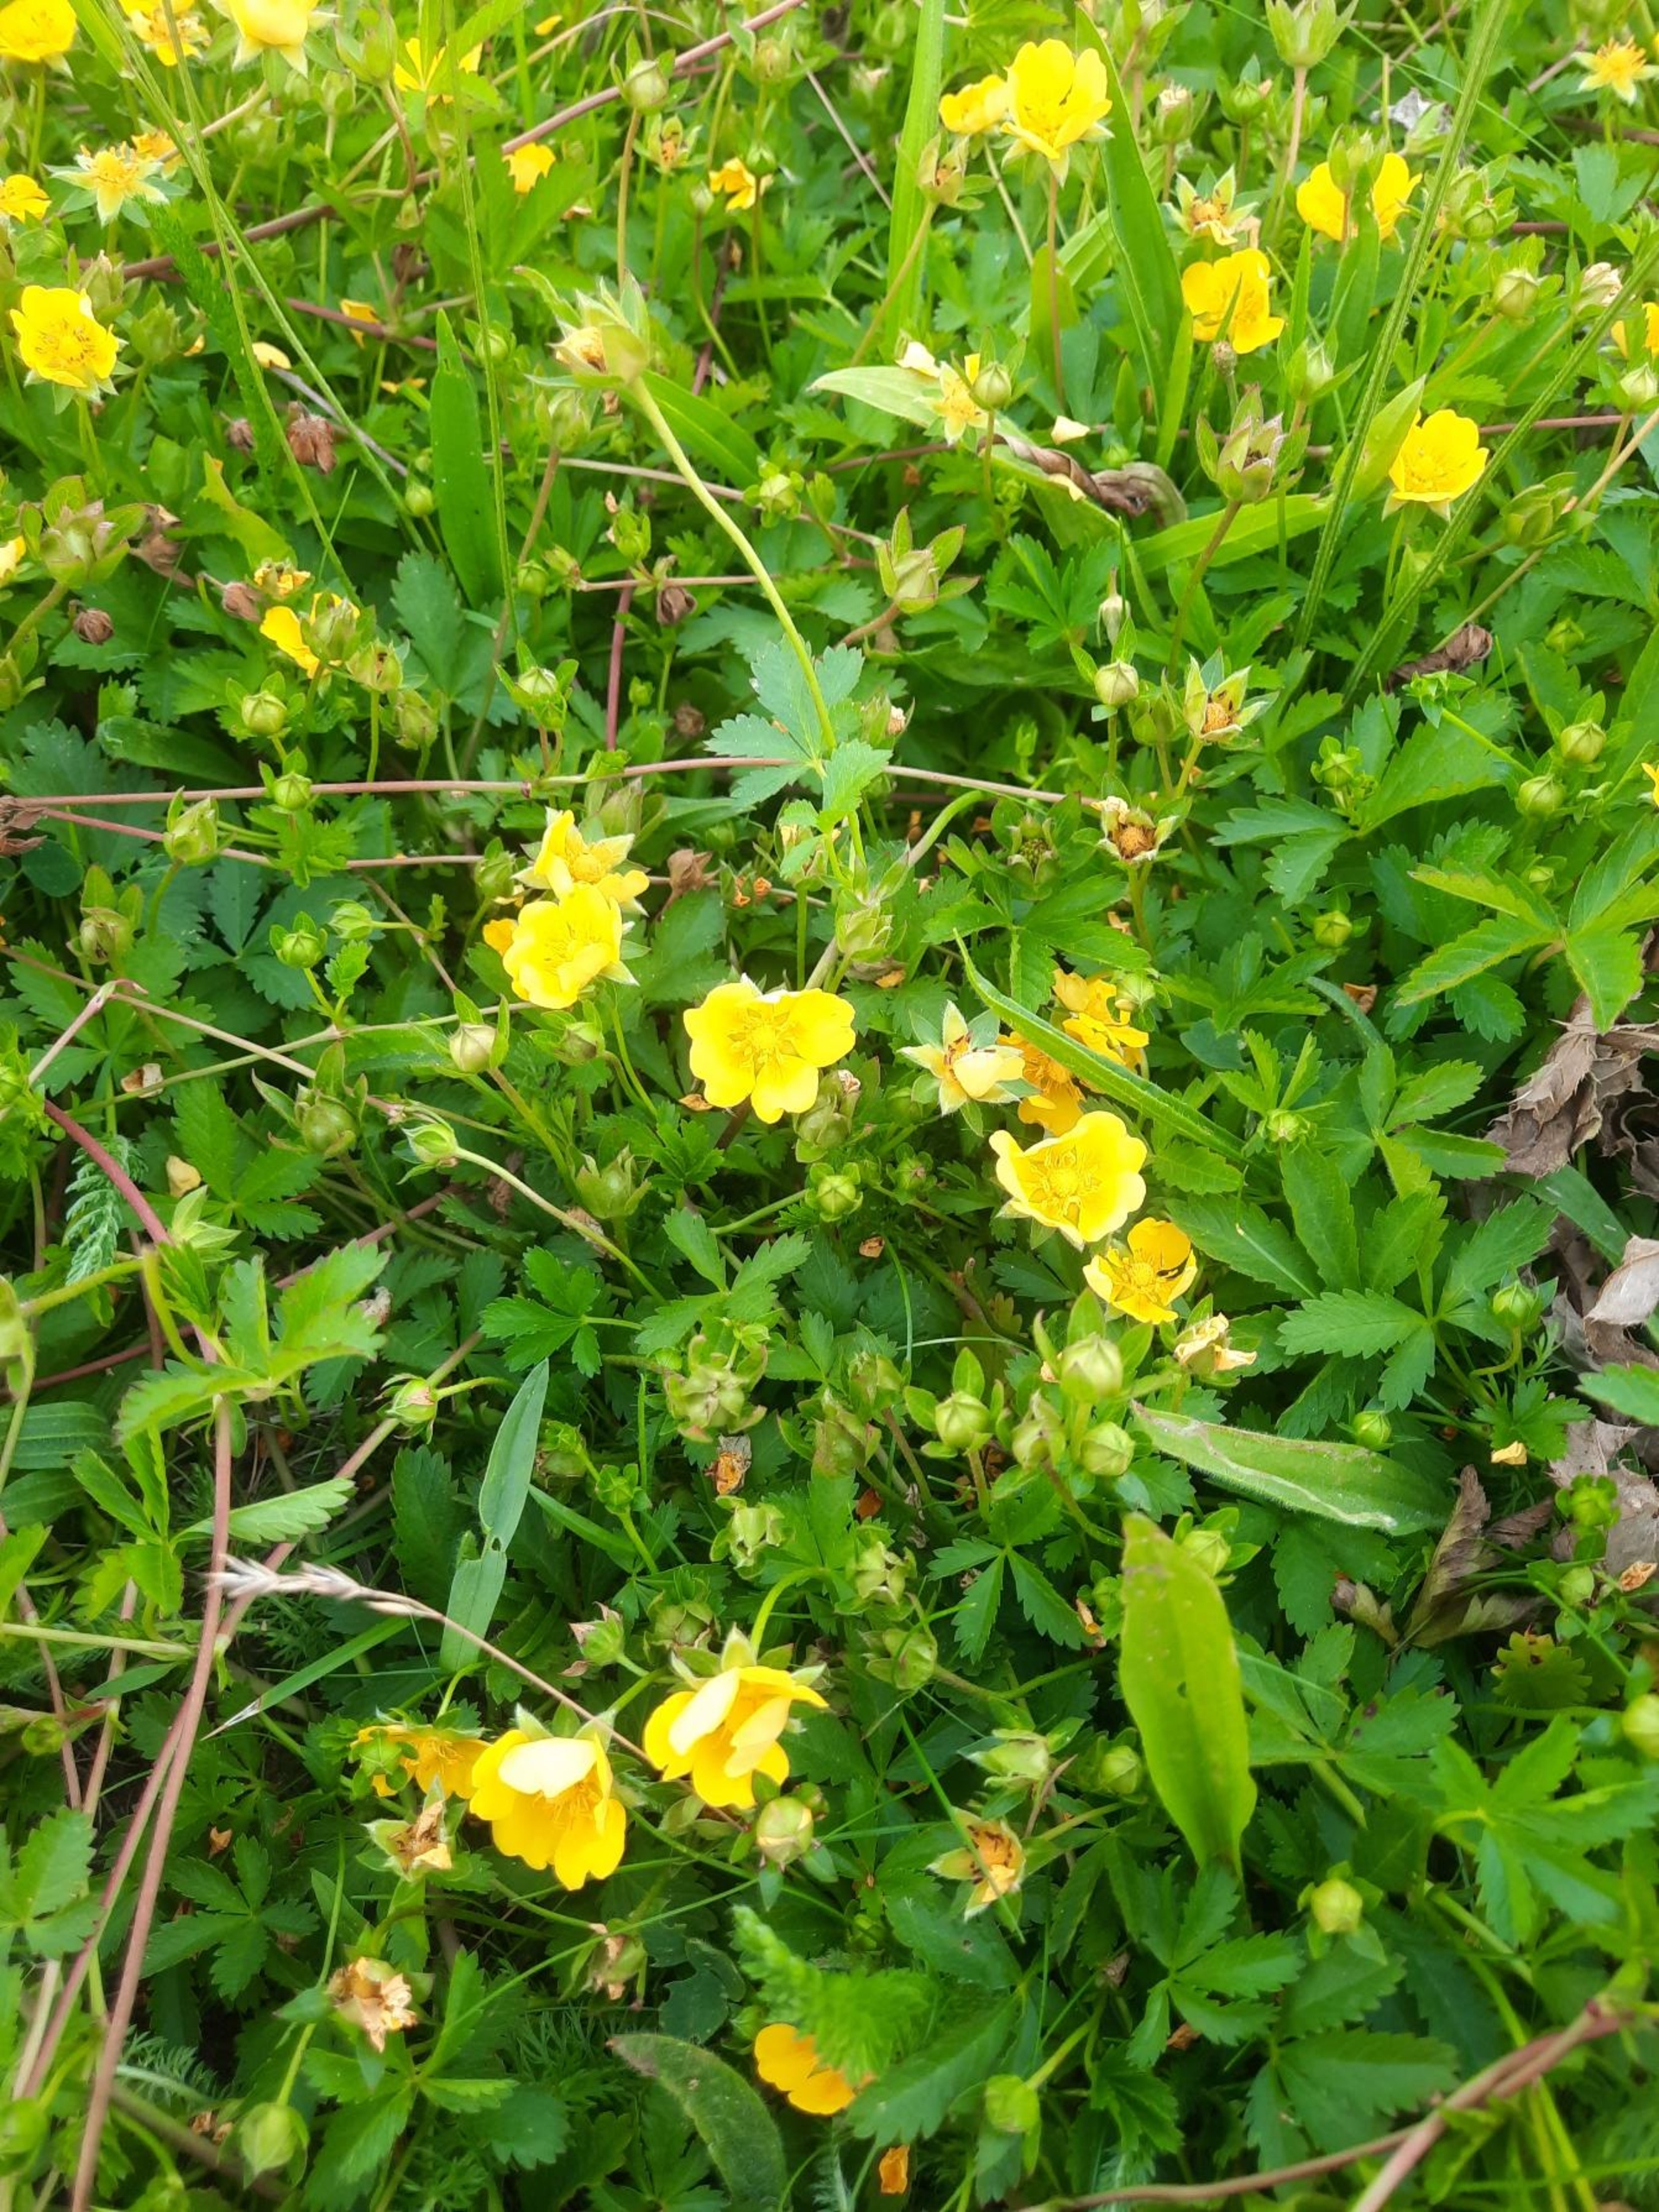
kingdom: Plantae
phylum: Tracheophyta
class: Magnoliopsida
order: Rosales
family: Rosaceae
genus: Potentilla
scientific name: Potentilla reptans
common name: Krybende potentil
